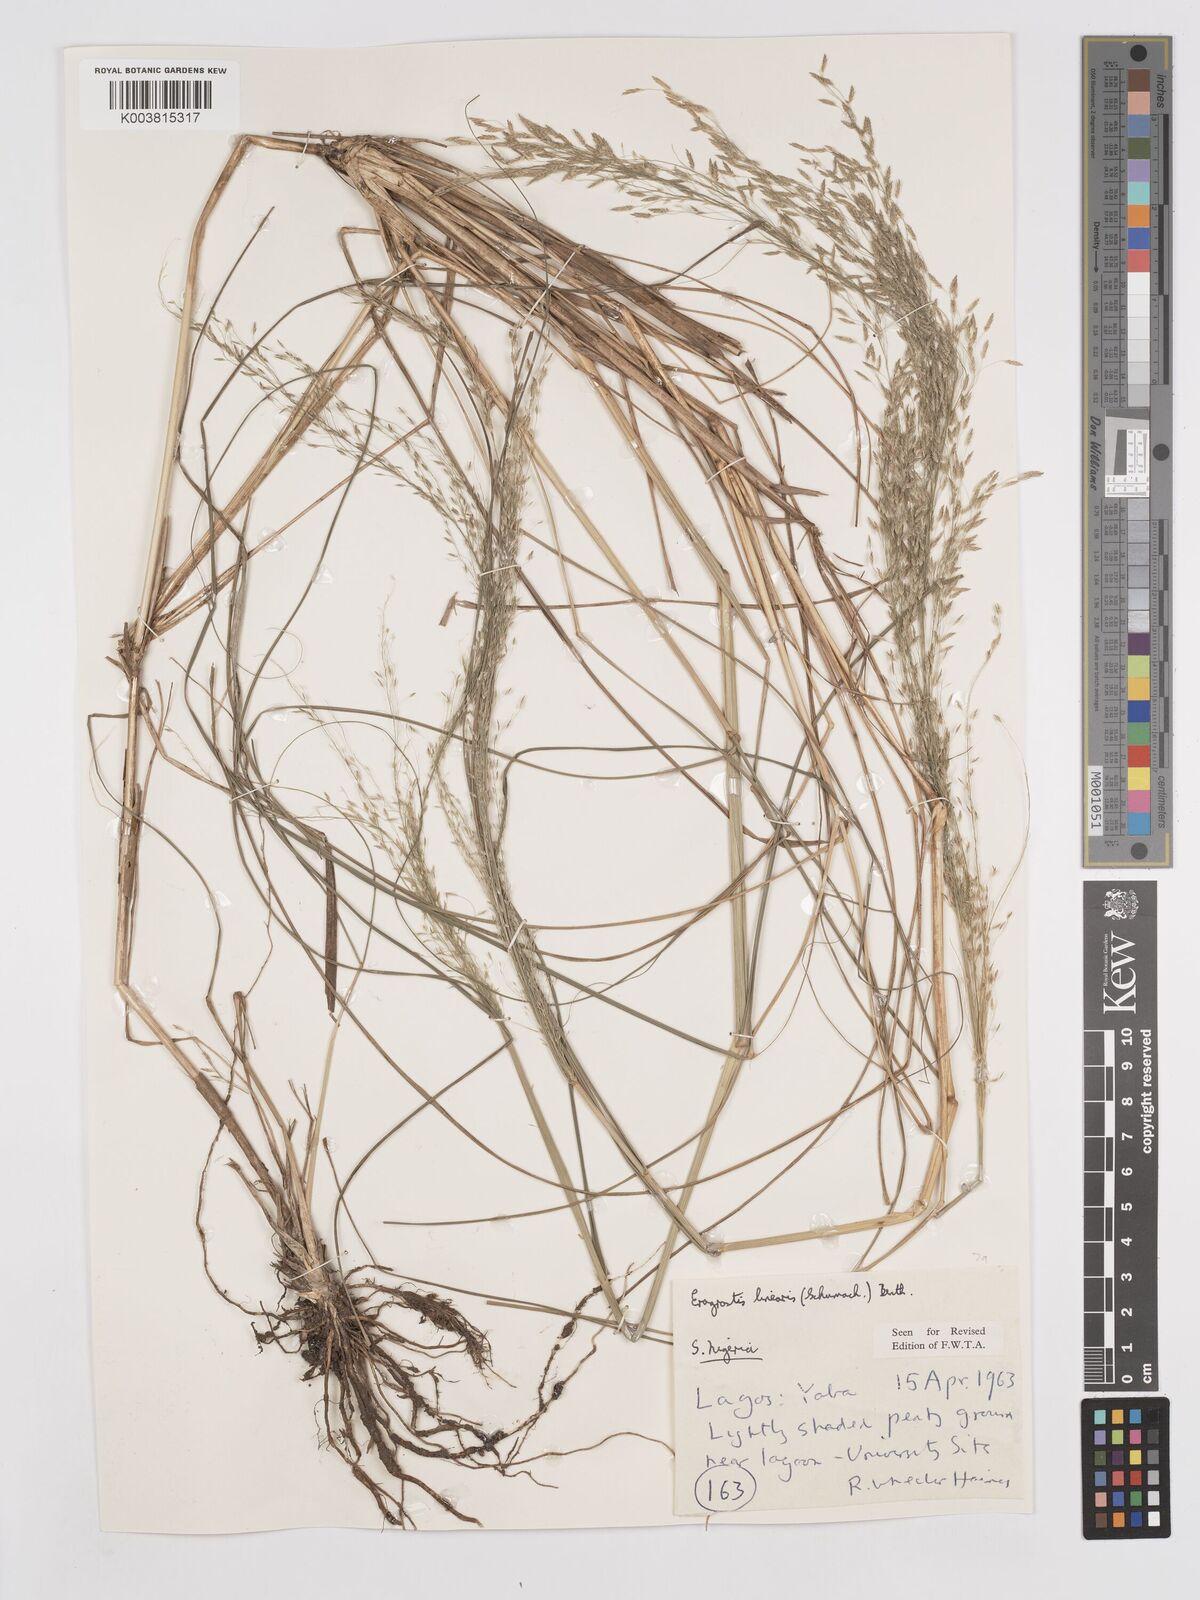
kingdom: Plantae
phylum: Tracheophyta
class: Liliopsida
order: Poales
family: Poaceae
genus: Eragrostis
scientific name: Eragrostis prolifera
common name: Dominican lovegrass
